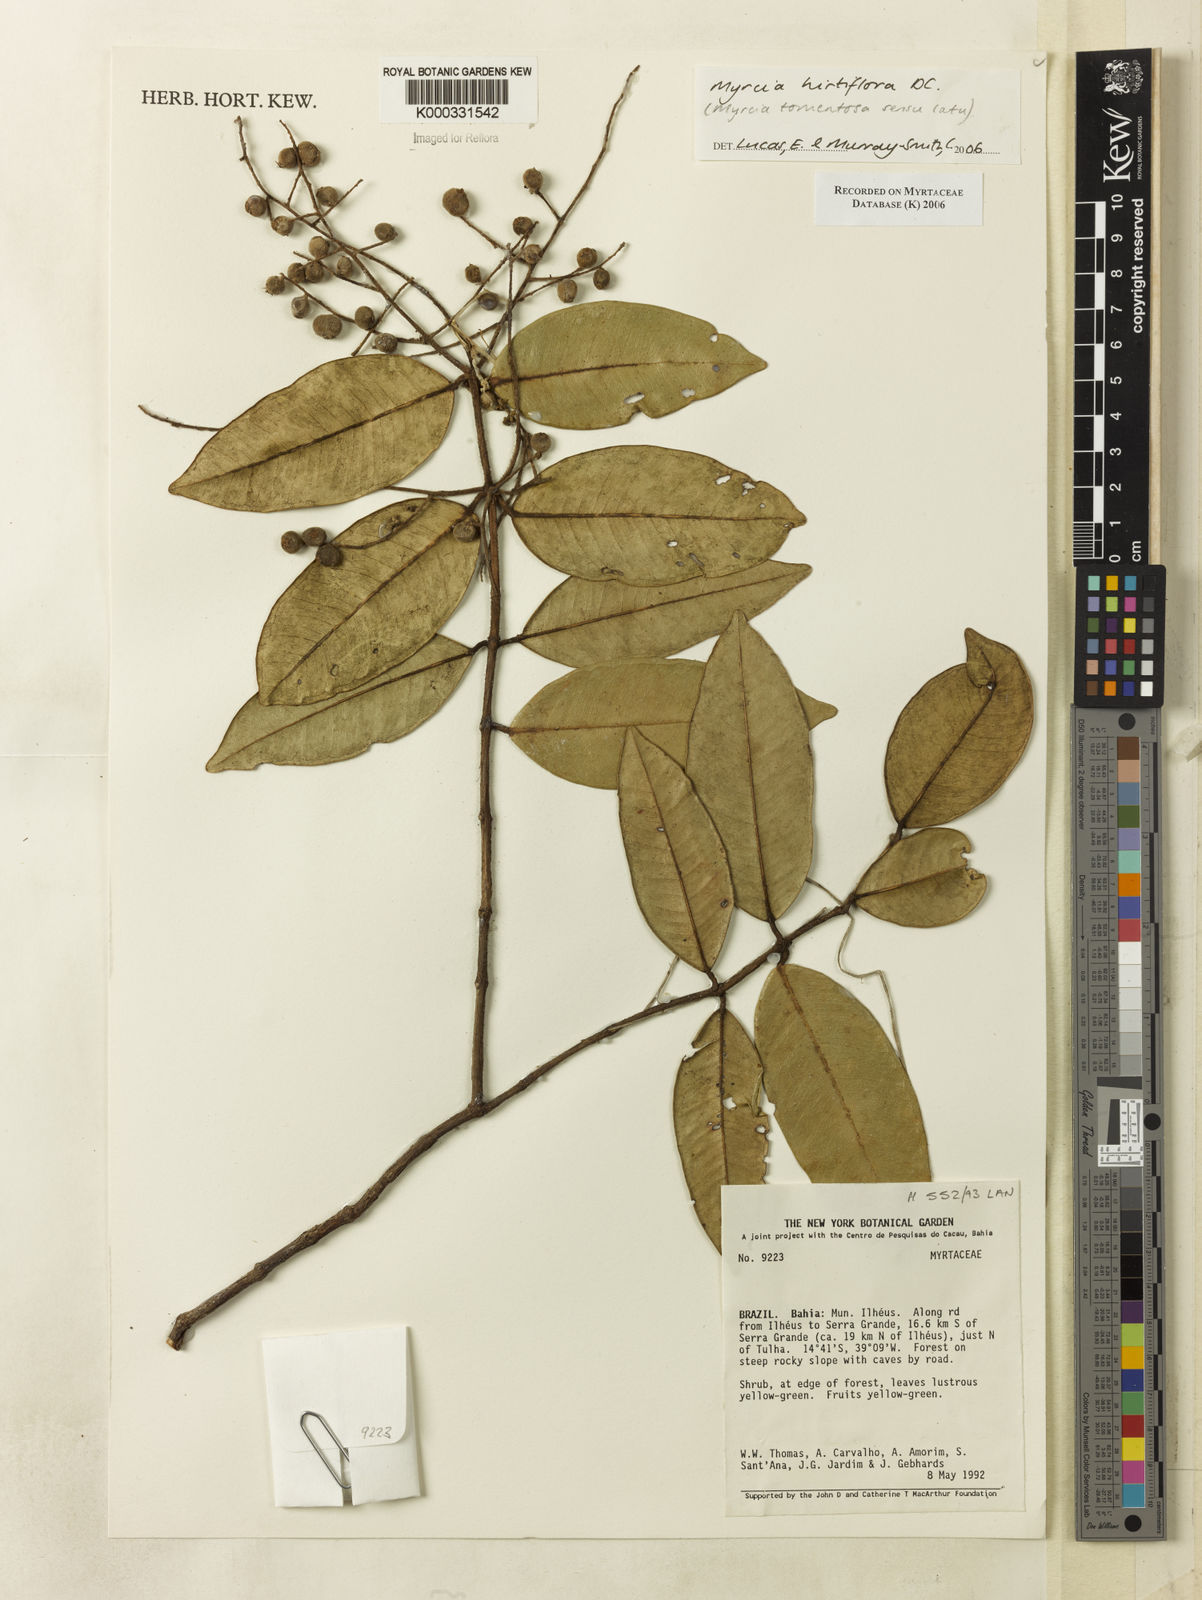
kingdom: Plantae
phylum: Tracheophyta
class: Magnoliopsida
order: Myrtales
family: Myrtaceae
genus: Myrcia
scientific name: Myrcia tomentosa
